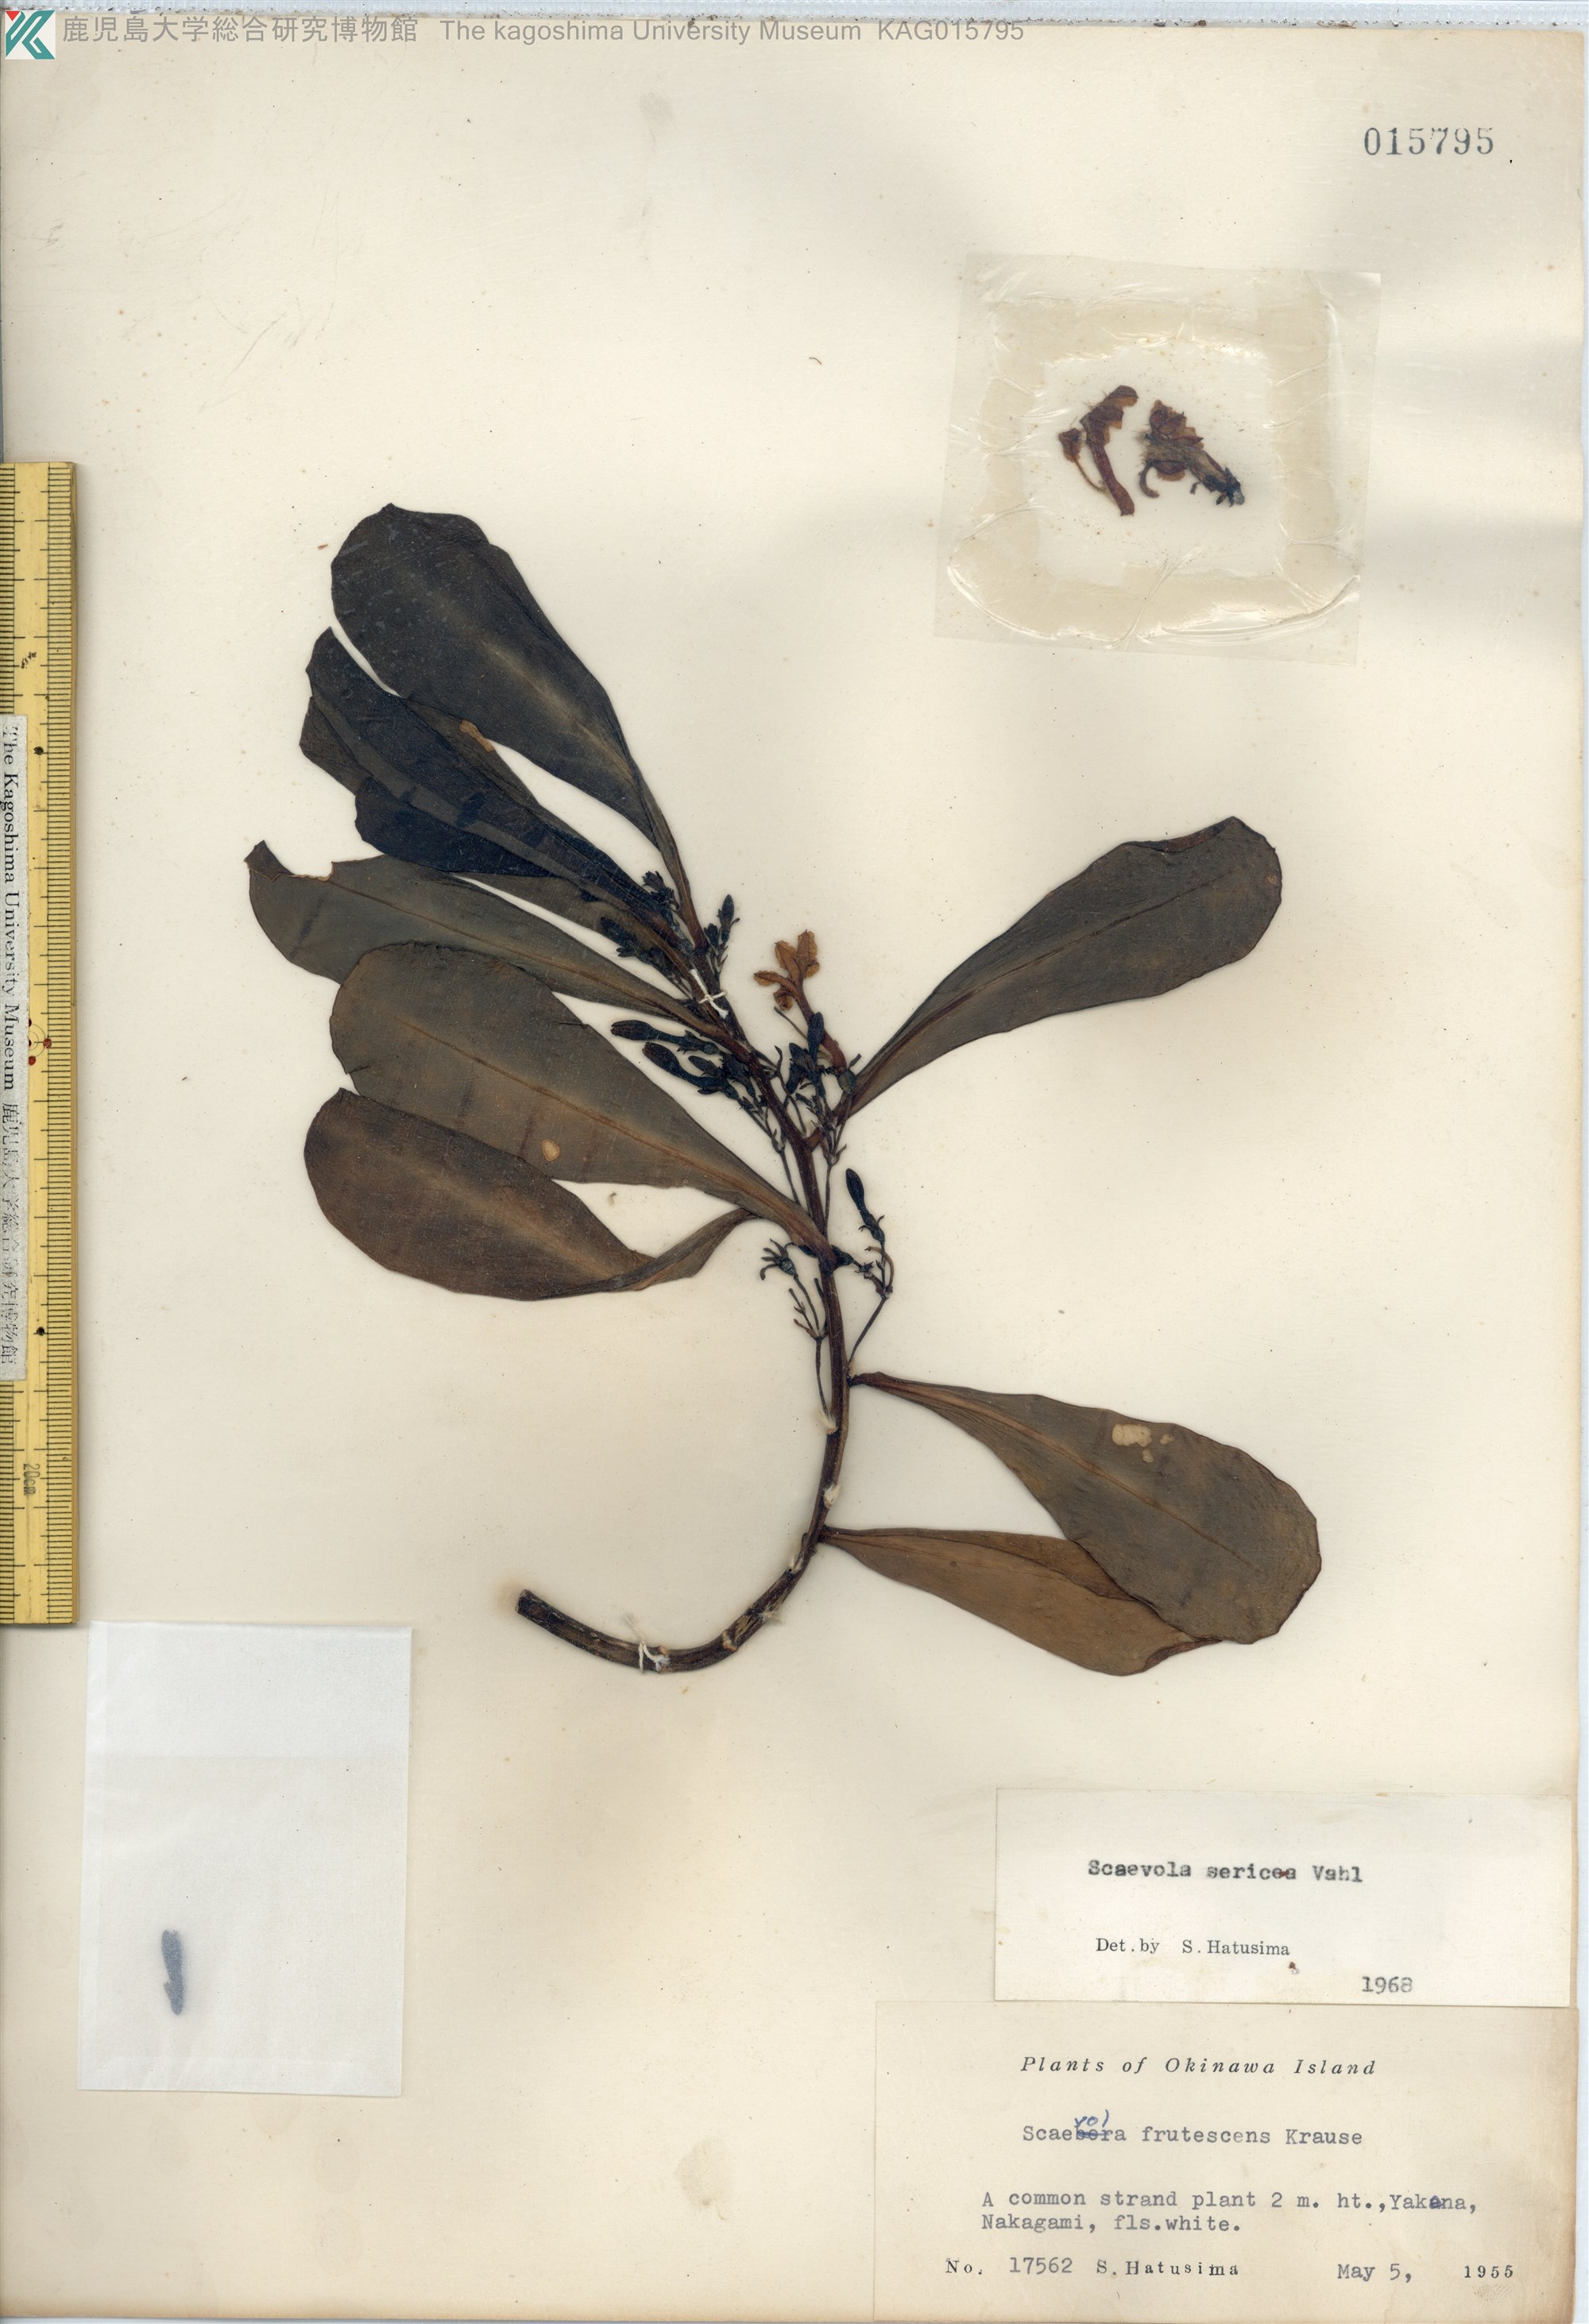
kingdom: Plantae
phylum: Tracheophyta
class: Magnoliopsida
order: Asterales
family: Goodeniaceae
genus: Scaevola
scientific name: Scaevola taccada
